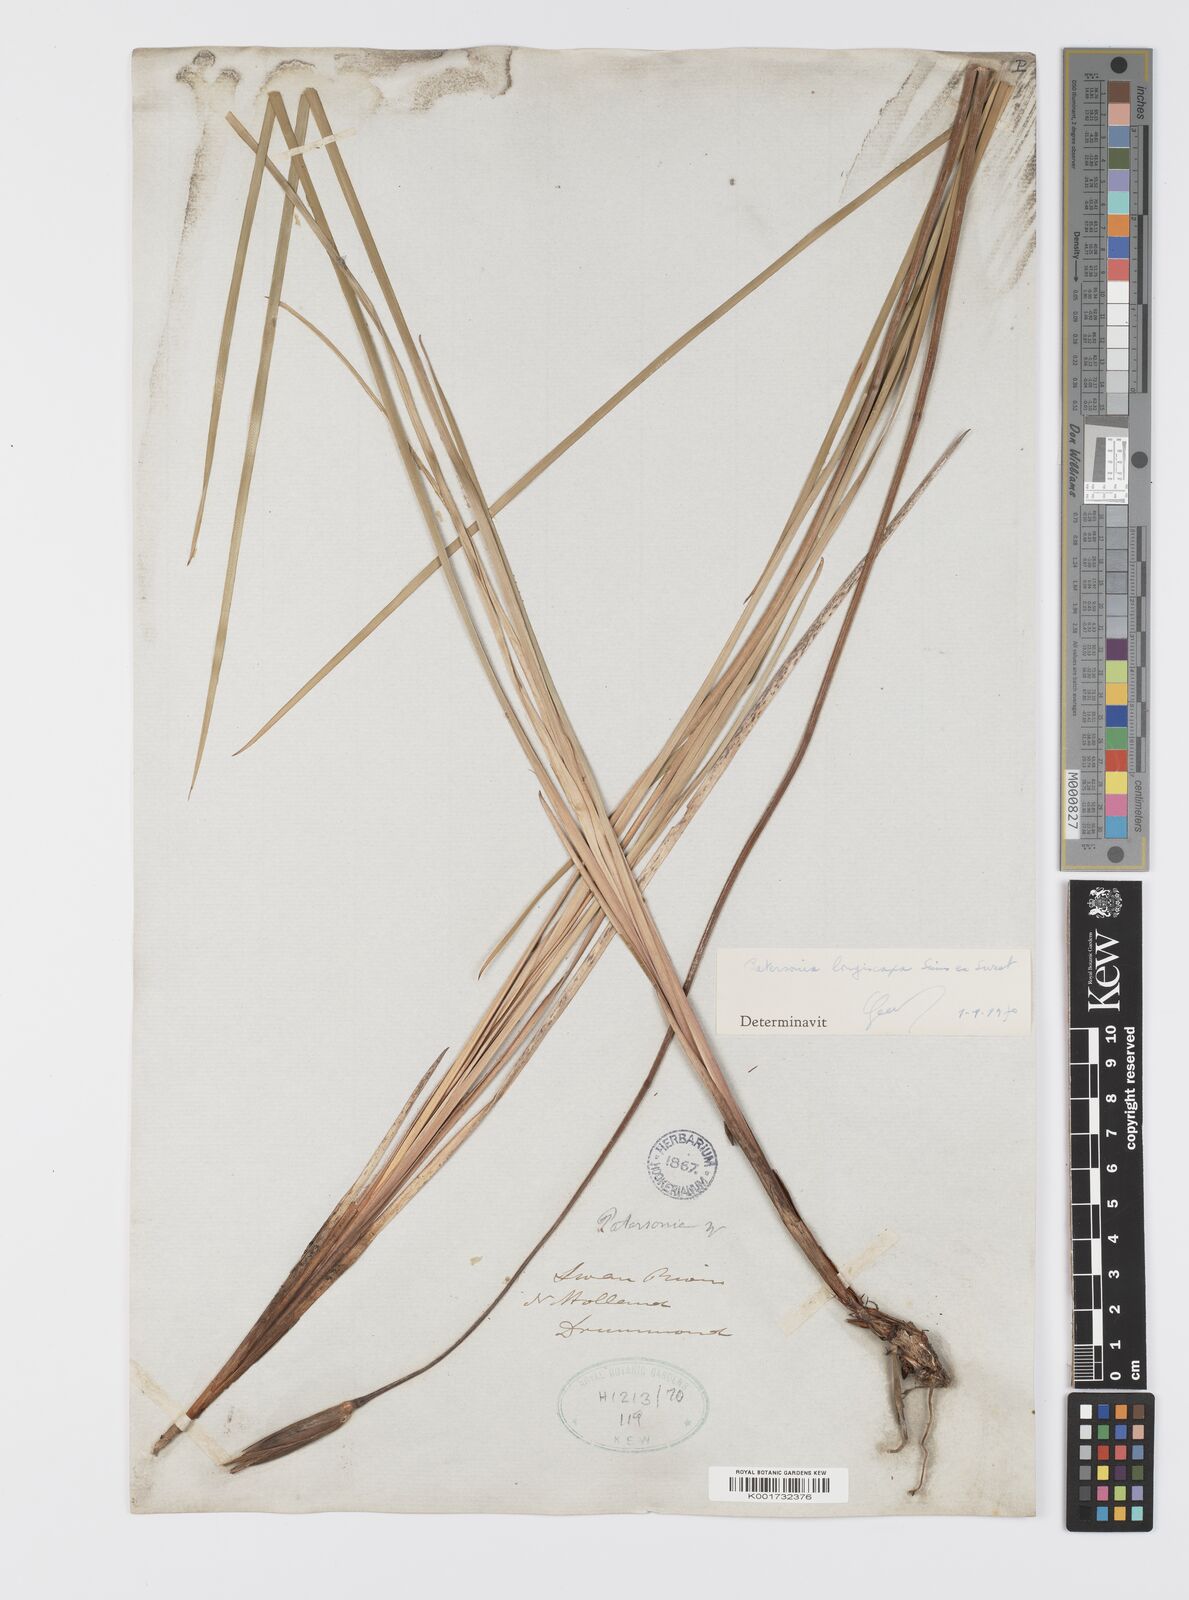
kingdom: Plantae
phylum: Tracheophyta
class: Liliopsida
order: Asparagales
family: Iridaceae
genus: Patersonia
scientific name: Patersonia occidentalis
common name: Long purple-flag
